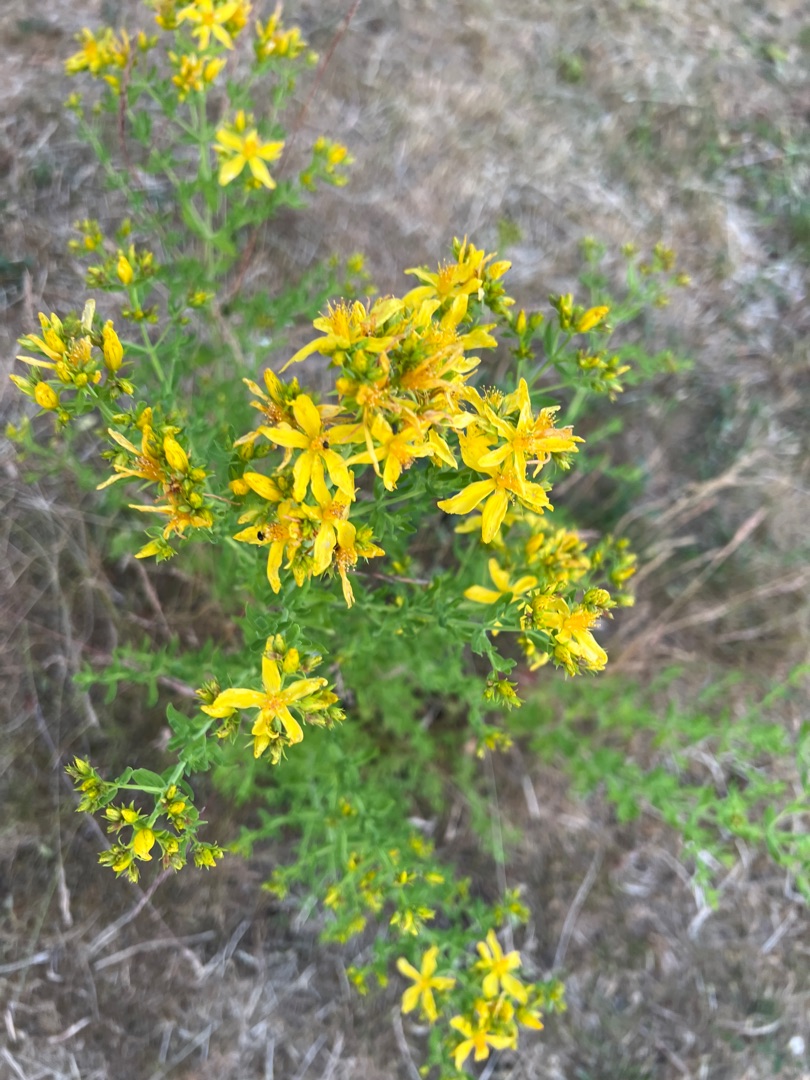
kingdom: Plantae
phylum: Tracheophyta
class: Magnoliopsida
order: Malpighiales
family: Hypericaceae
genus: Hypericum
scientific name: Hypericum perforatum
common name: Prikbladet perikon
